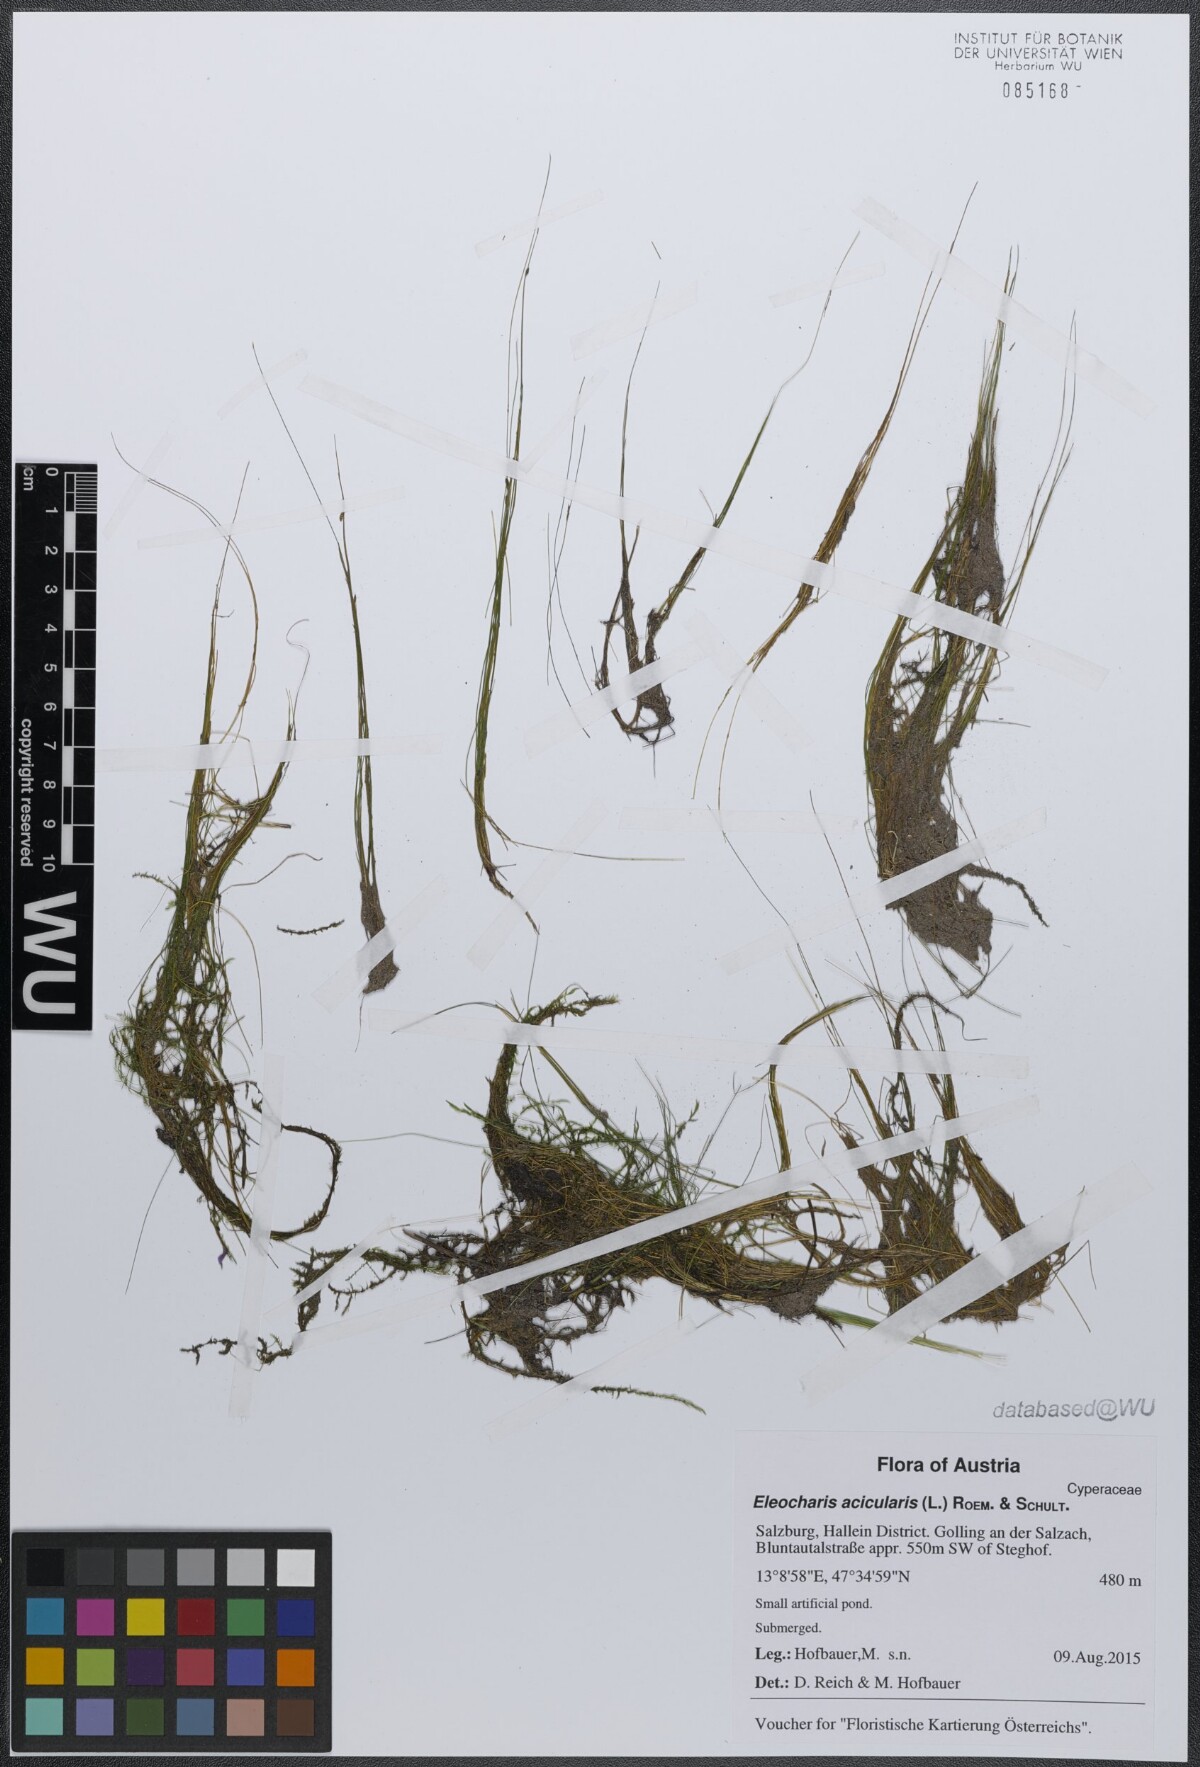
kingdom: Plantae
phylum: Tracheophyta
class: Liliopsida
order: Poales
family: Cyperaceae
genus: Eleocharis
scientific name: Eleocharis acicularis
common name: Needle spike-rush
